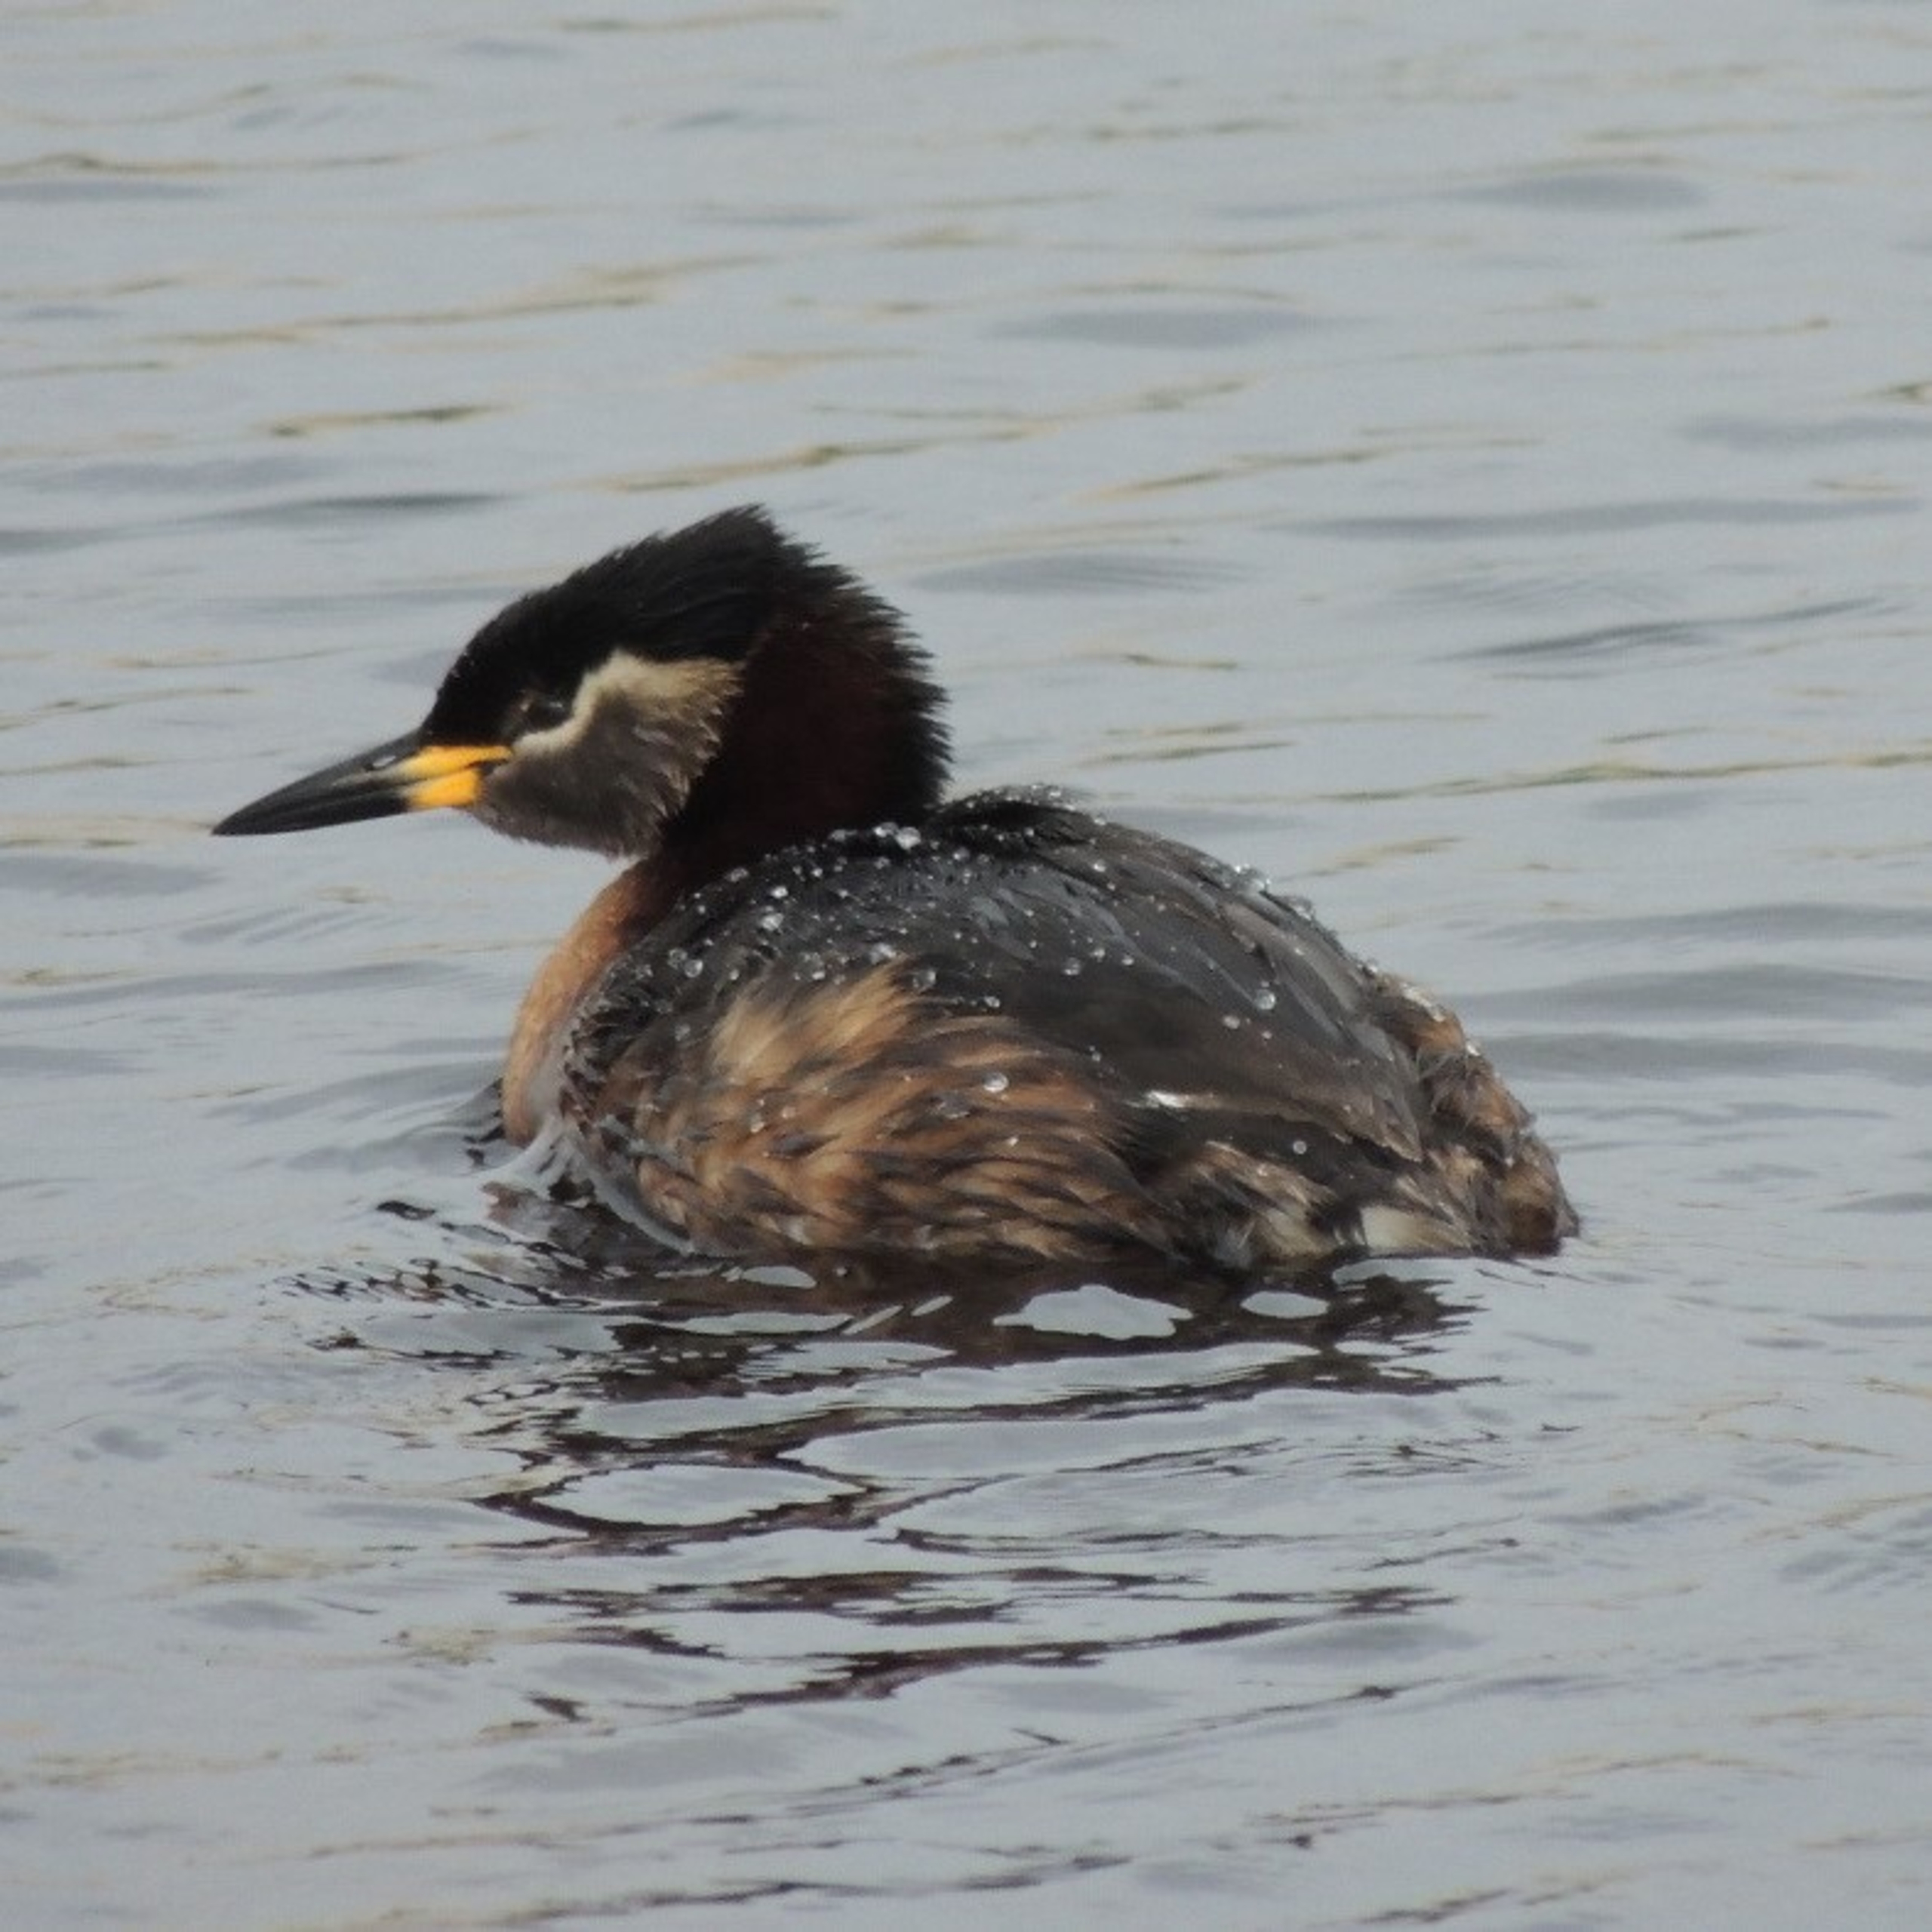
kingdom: Animalia
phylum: Chordata
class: Aves
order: Podicipediformes
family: Podicipedidae
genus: Podiceps
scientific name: Podiceps grisegena
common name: Gråstrubet lappedykker
